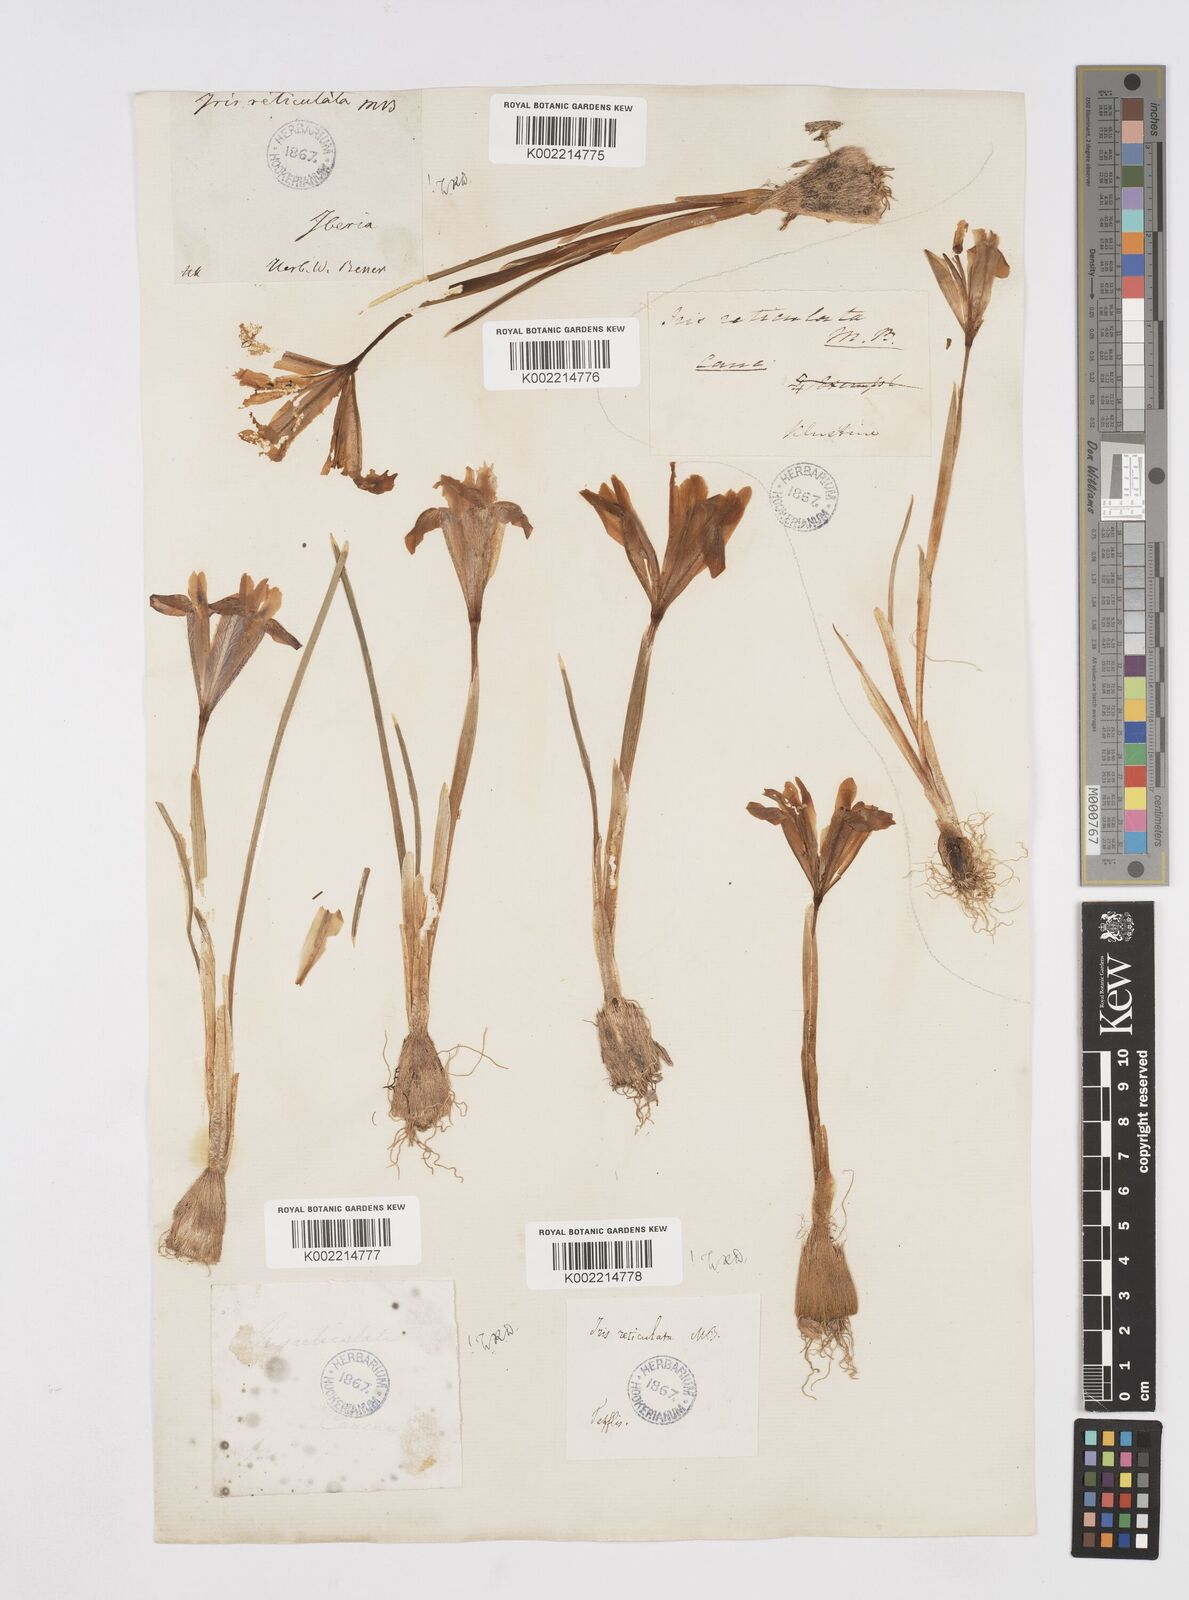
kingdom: Plantae
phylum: Tracheophyta
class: Liliopsida
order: Asparagales
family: Iridaceae
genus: Iris
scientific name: Iris reticulata
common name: Netted iris
